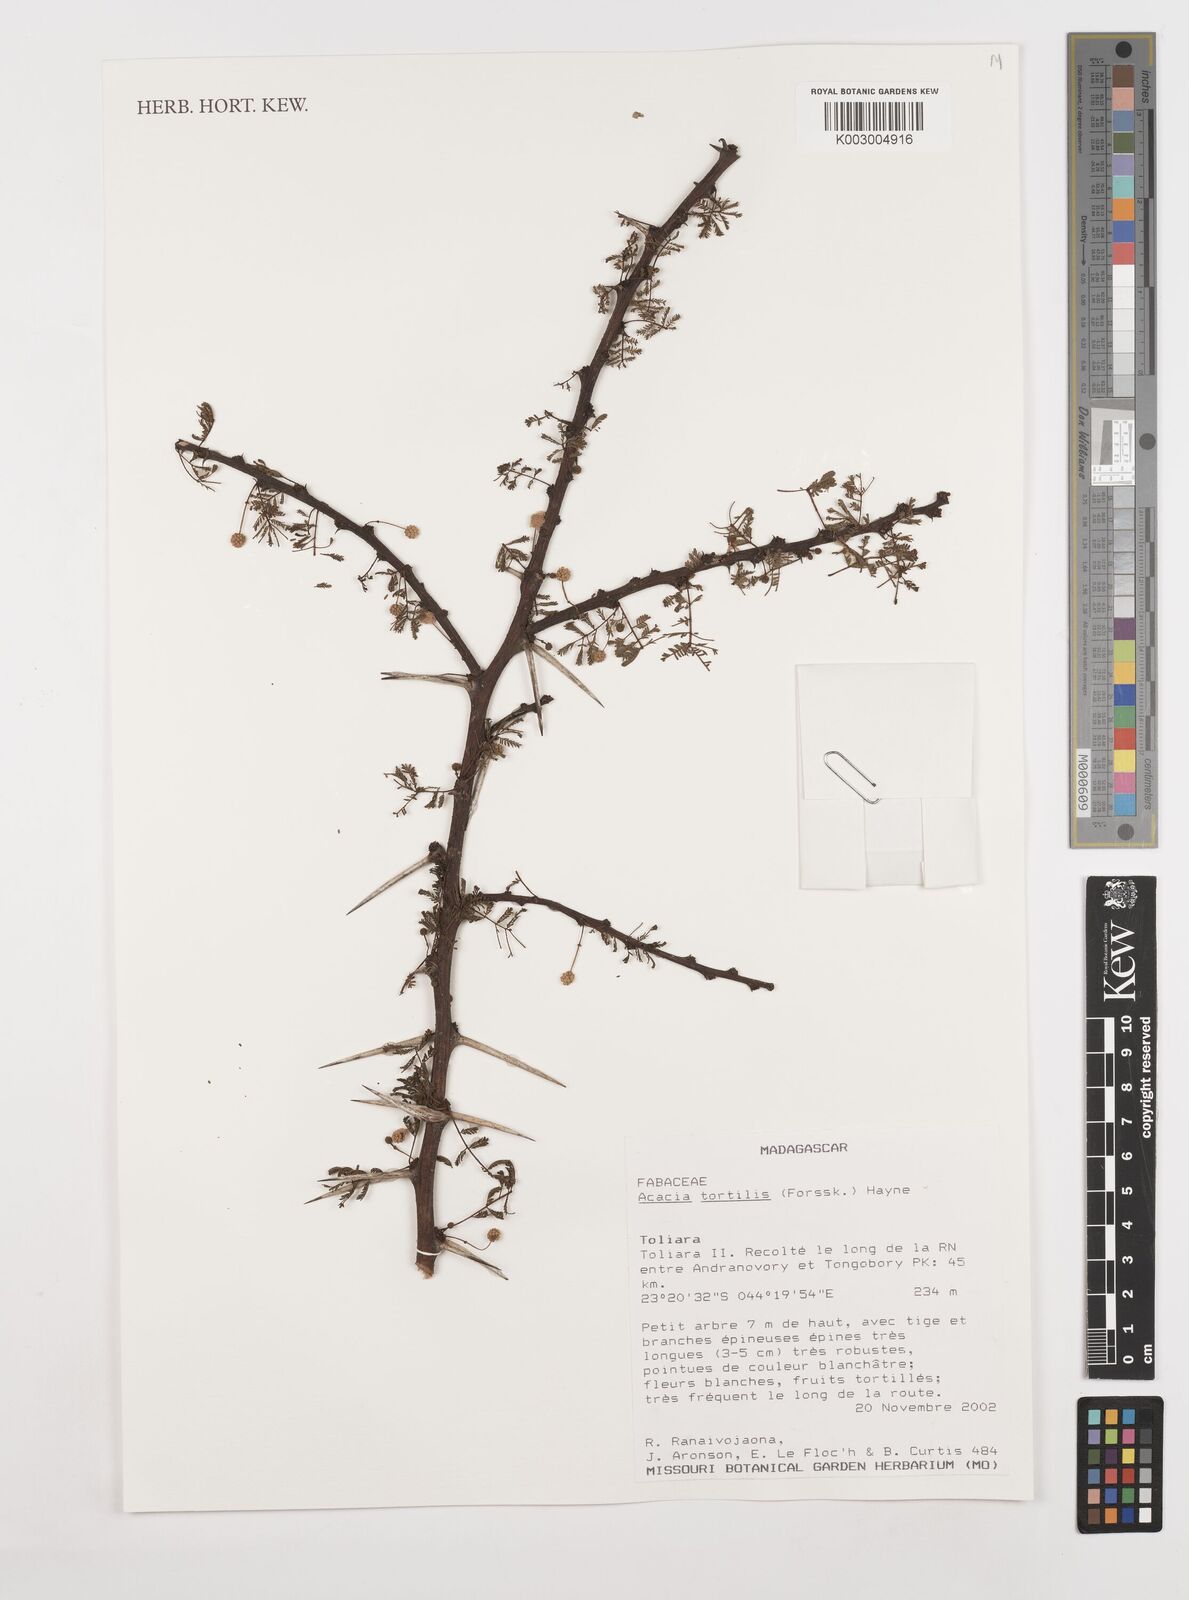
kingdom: Plantae
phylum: Tracheophyta
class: Magnoliopsida
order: Fabales
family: Fabaceae
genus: Vachellia
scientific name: Vachellia tortilis
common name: Umbrella thorn acacia
